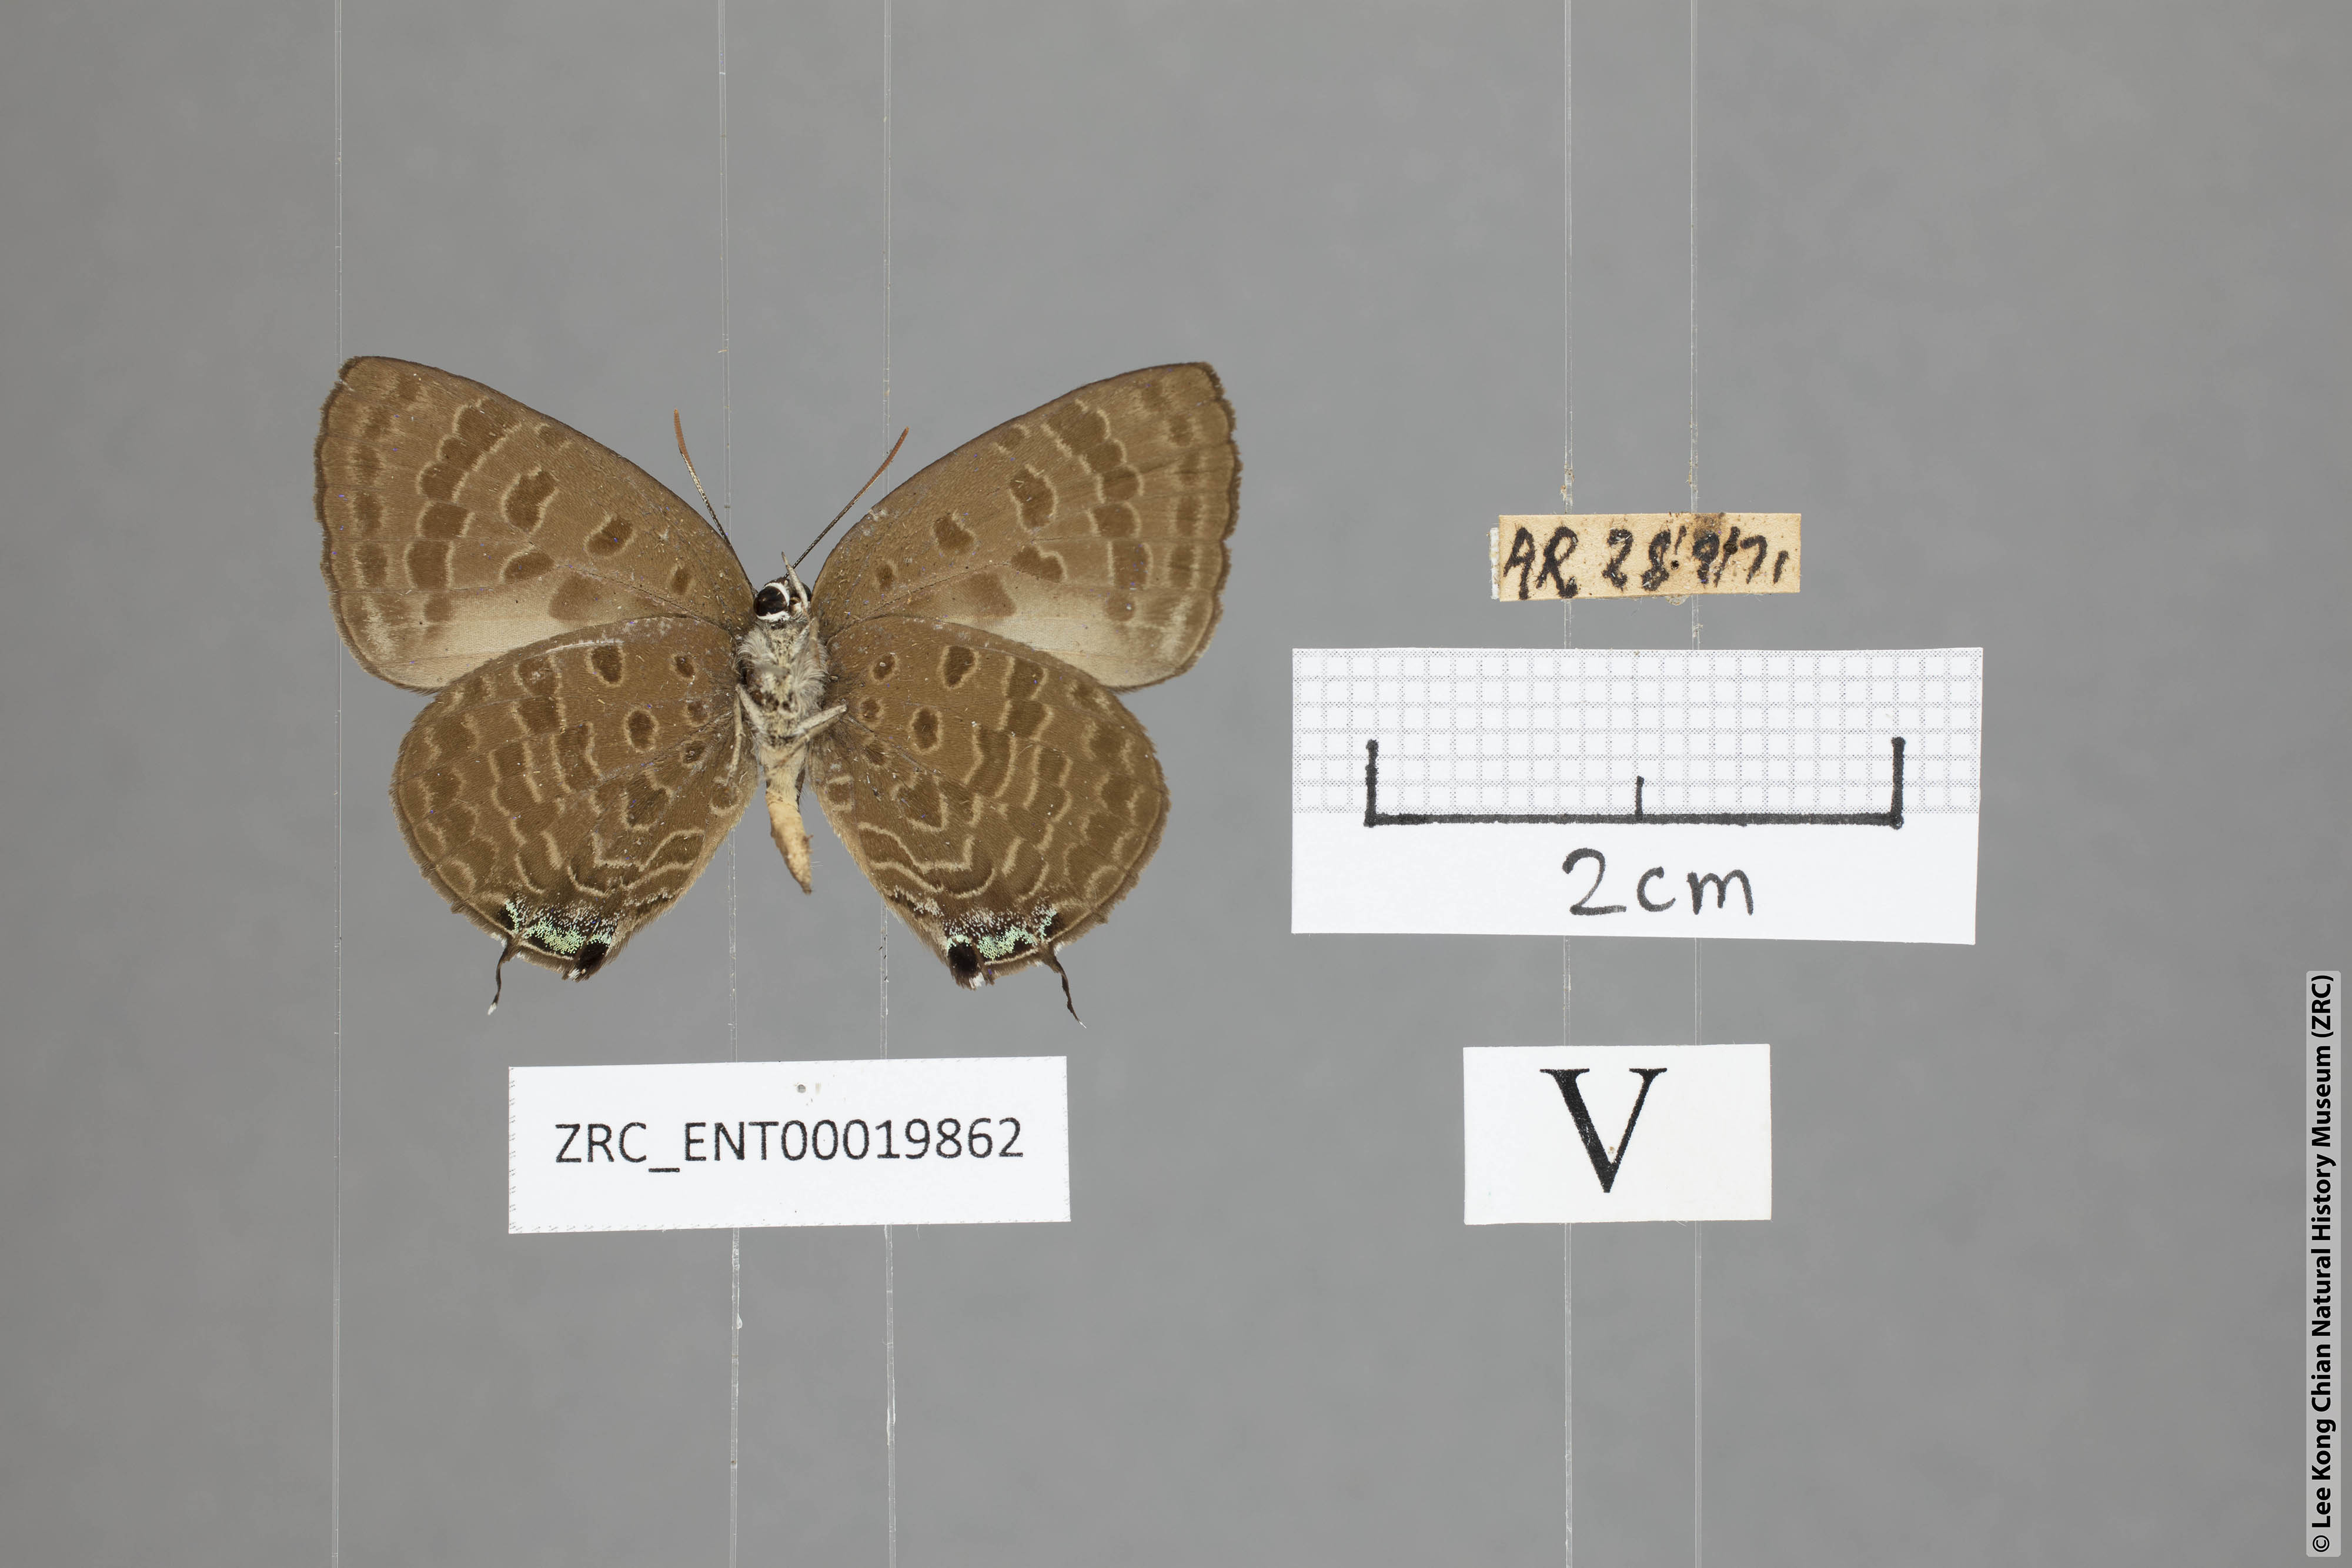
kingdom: Animalia
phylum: Arthropoda
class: Insecta
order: Lepidoptera
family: Lycaenidae
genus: Arhopala
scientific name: Arhopala sublustris
